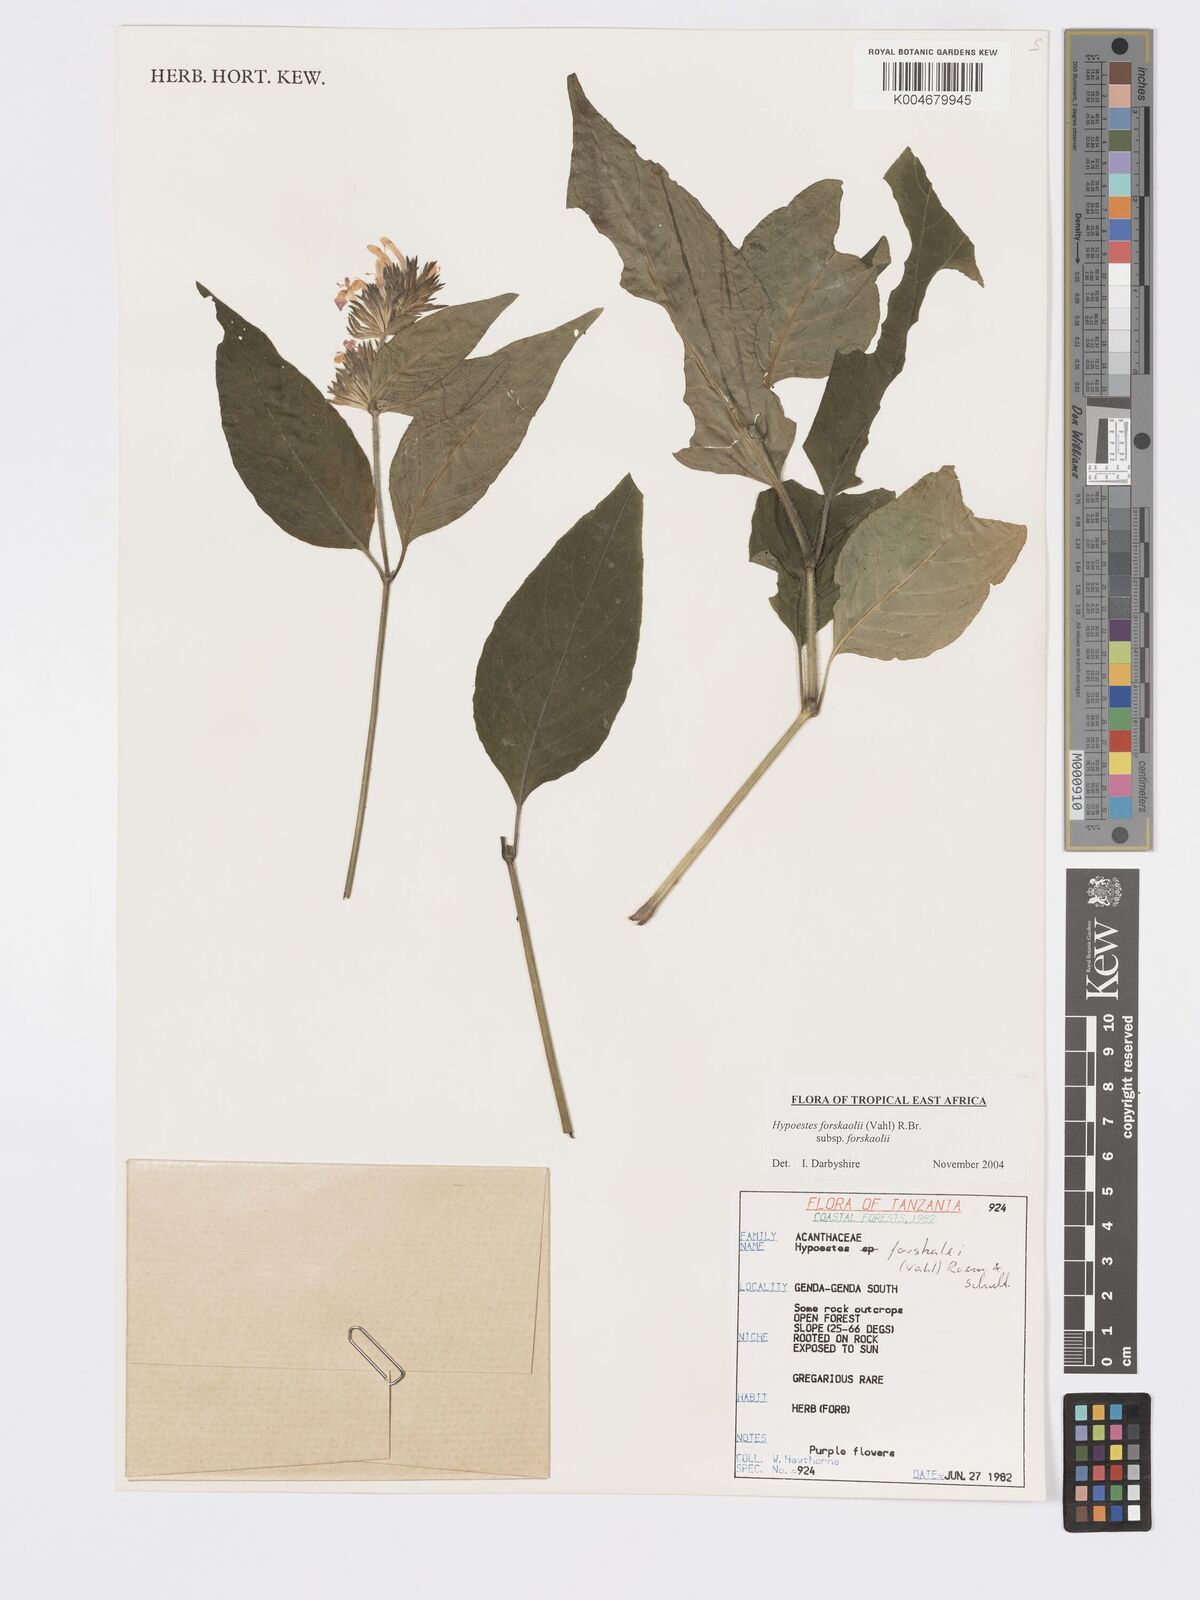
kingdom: Plantae
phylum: Tracheophyta
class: Magnoliopsida
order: Lamiales
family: Acanthaceae
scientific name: Acanthaceae
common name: Acanthaceae
